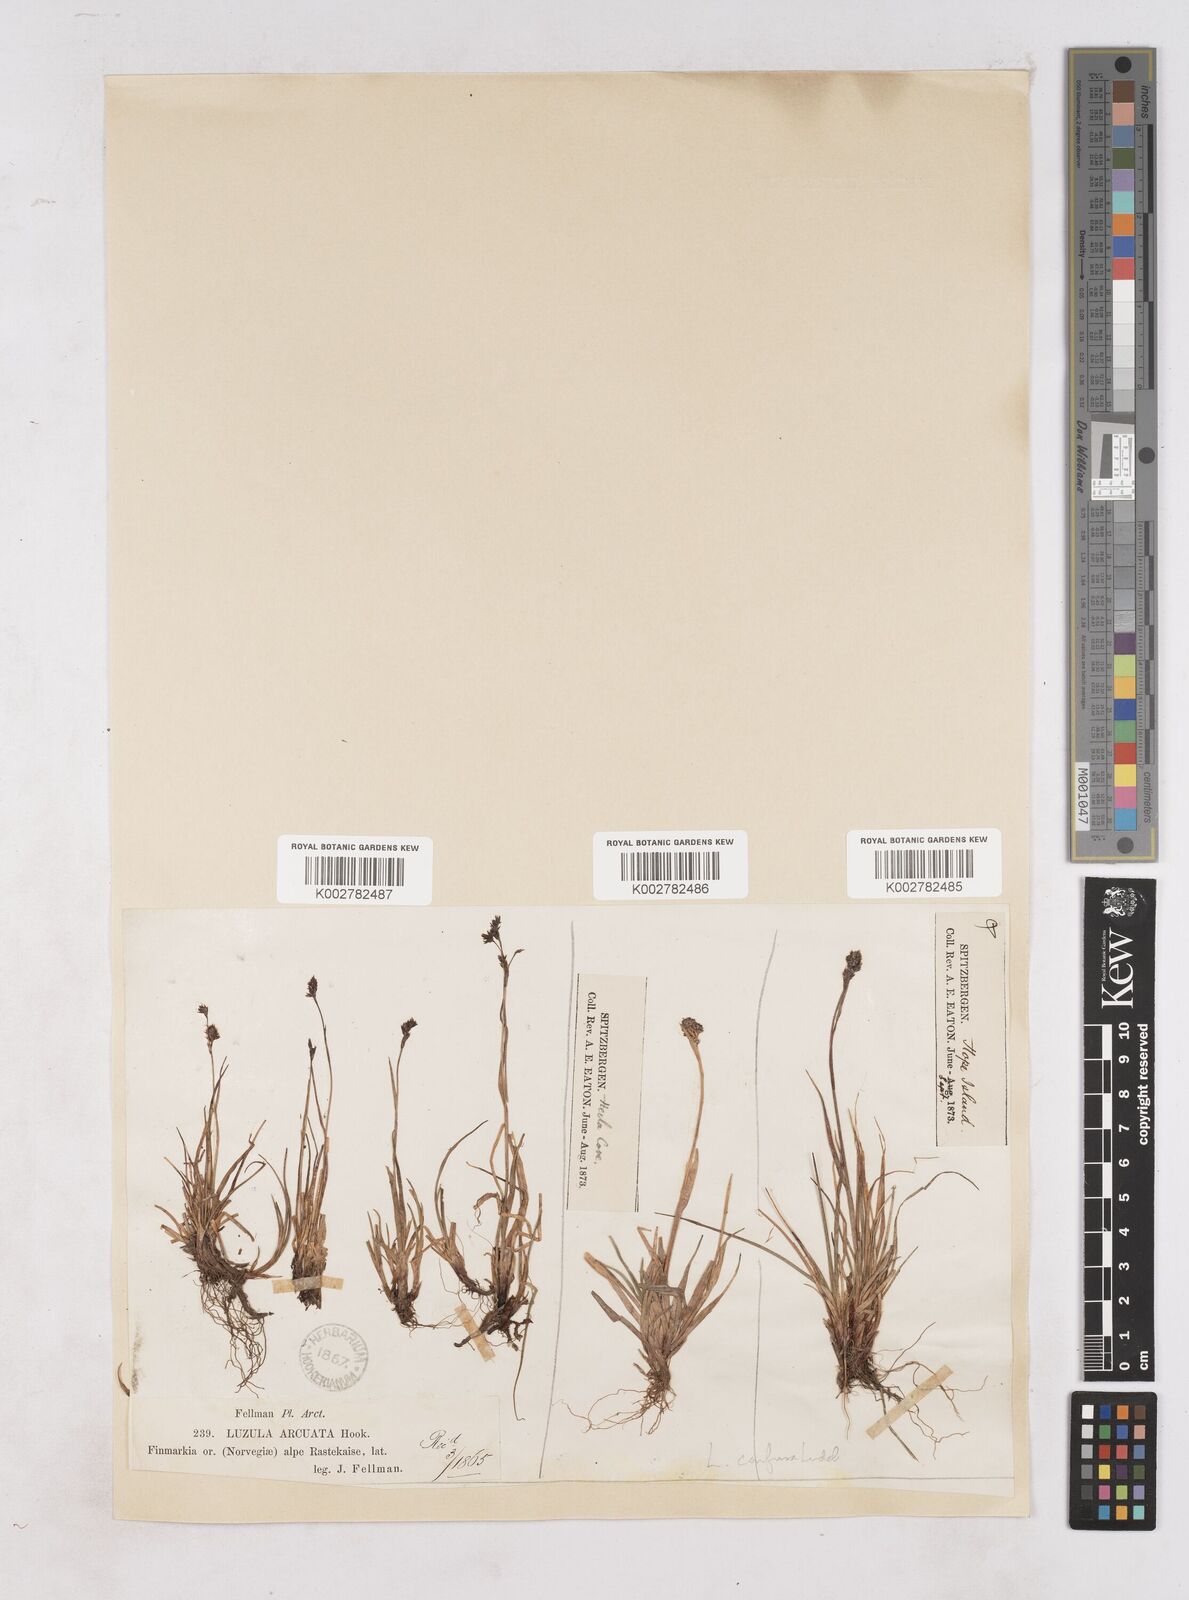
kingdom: Plantae
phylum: Tracheophyta
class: Liliopsida
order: Poales
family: Juncaceae
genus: Luzula
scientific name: Luzula arcuata
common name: Curved wood-rush
